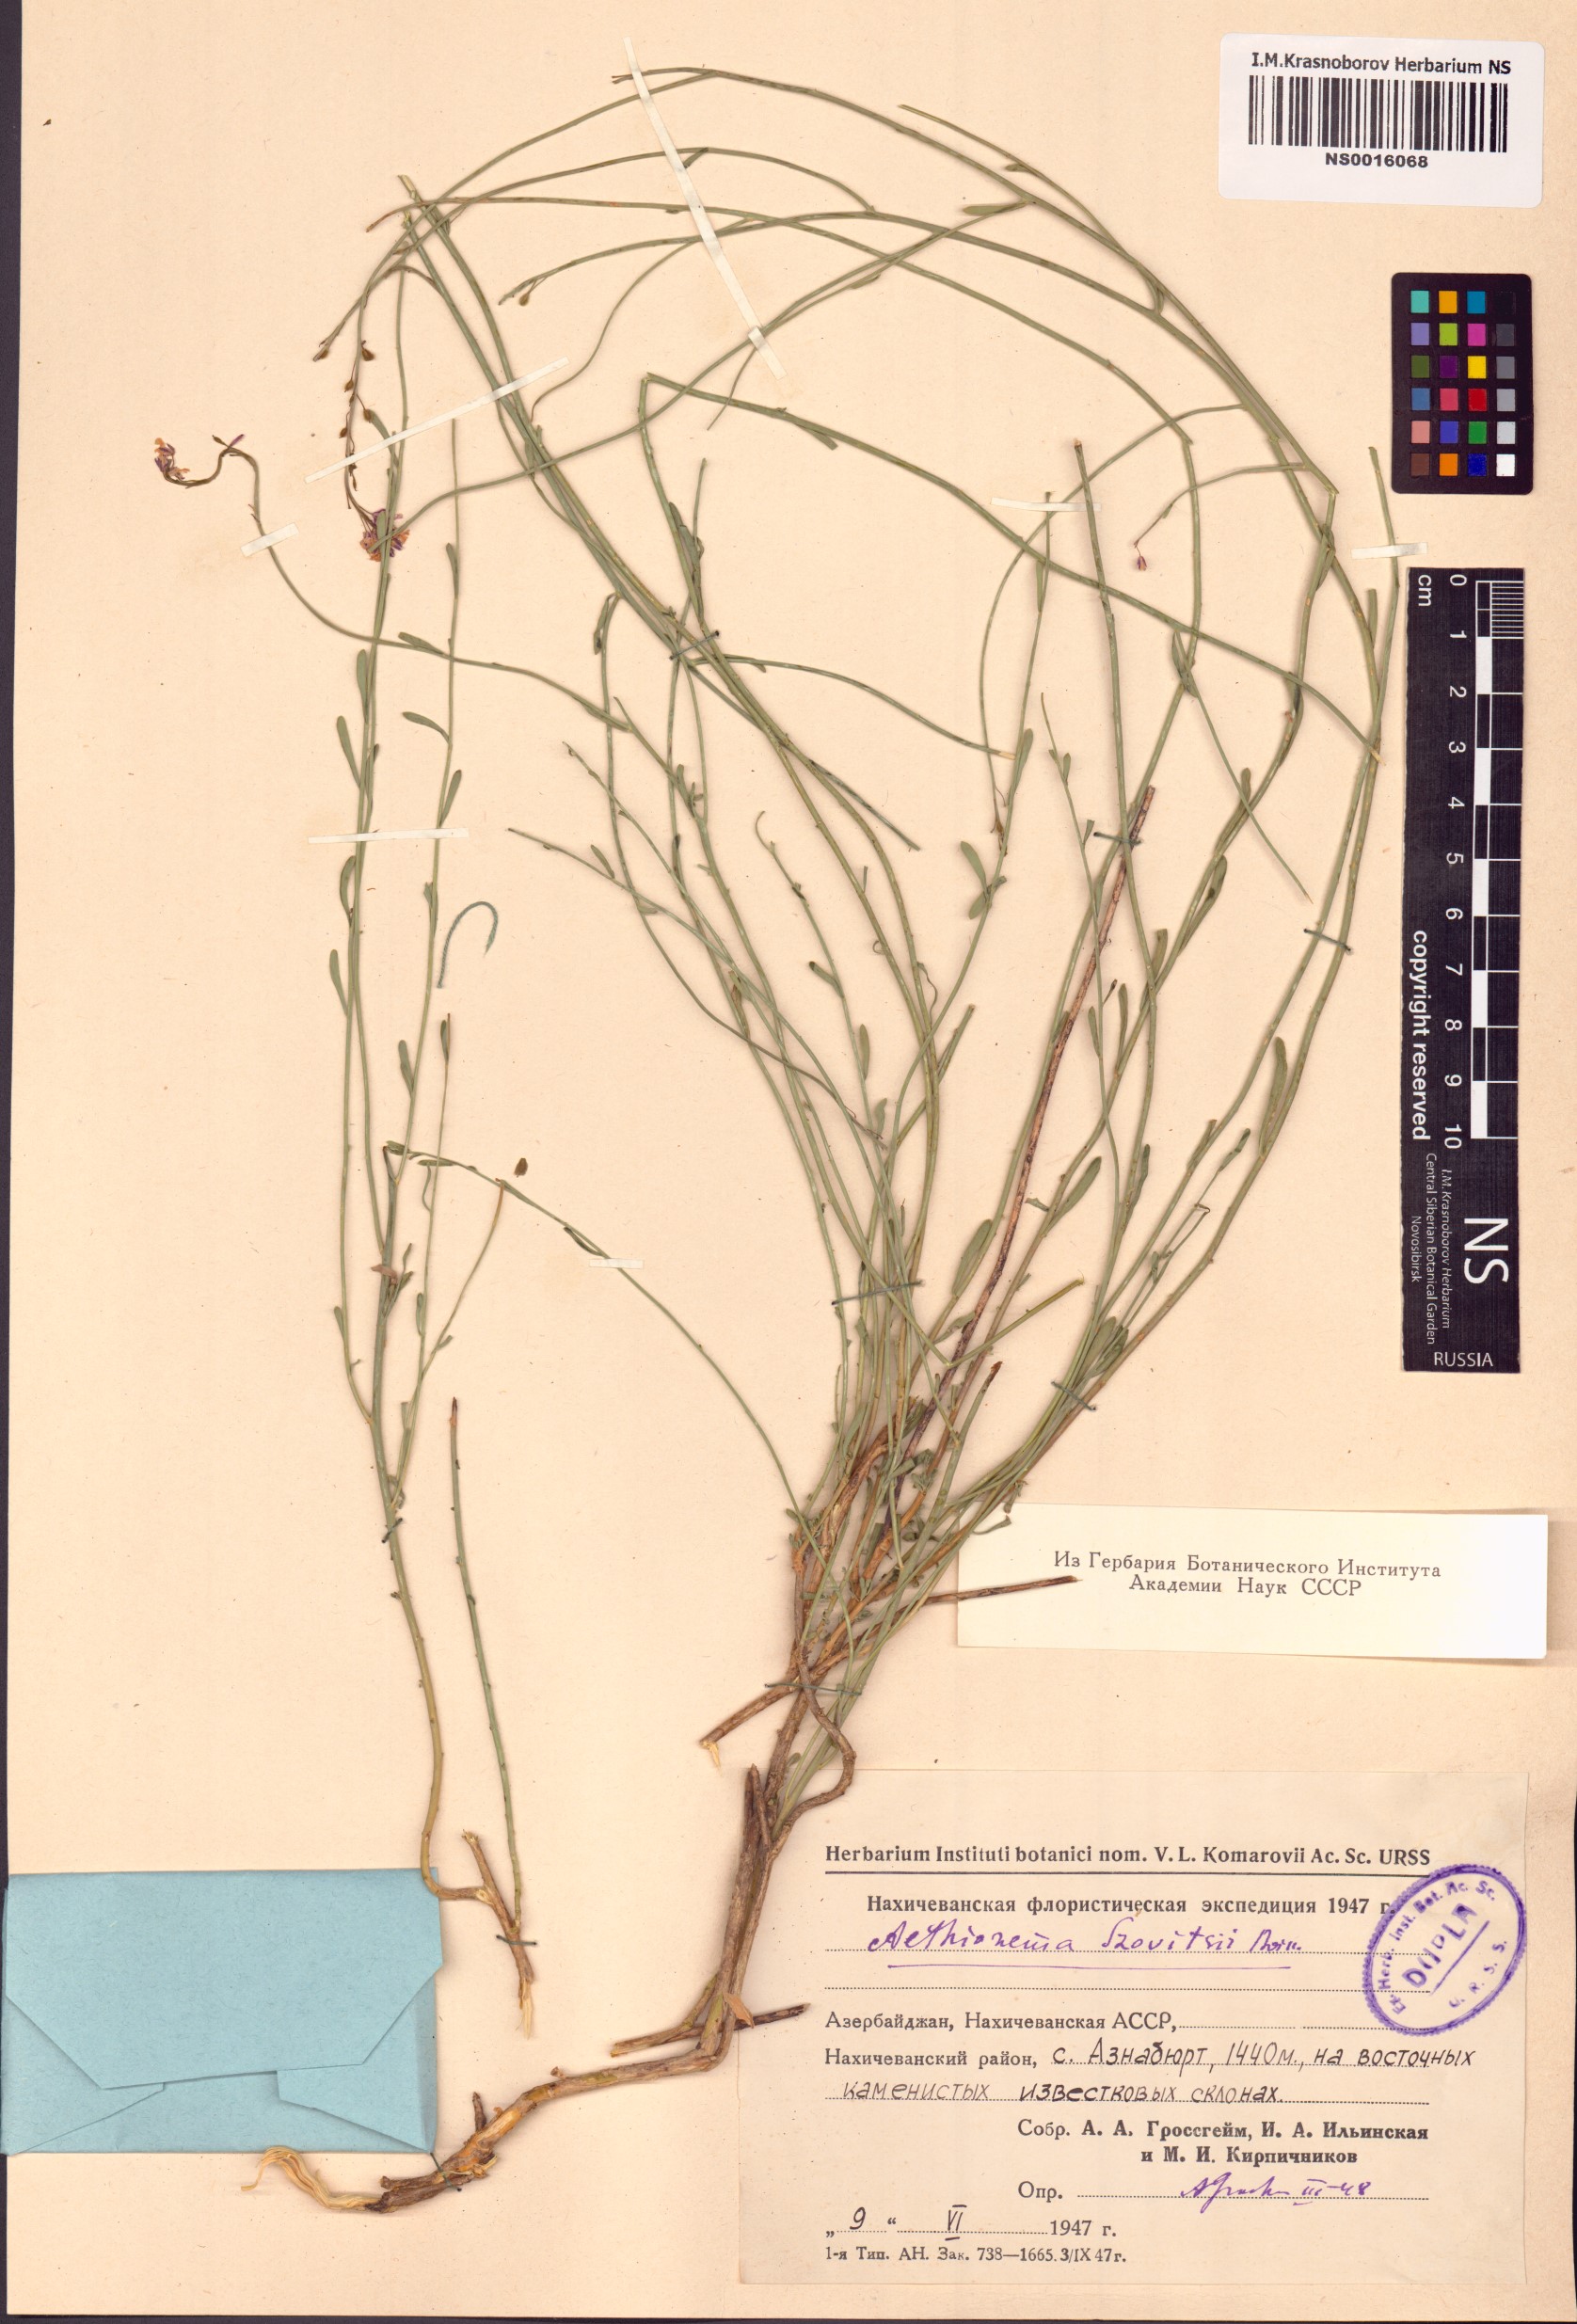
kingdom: Plantae
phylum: Tracheophyta
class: Magnoliopsida
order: Brassicales
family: Brassicaceae
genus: Aethionema
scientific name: Aethionema virgatum
